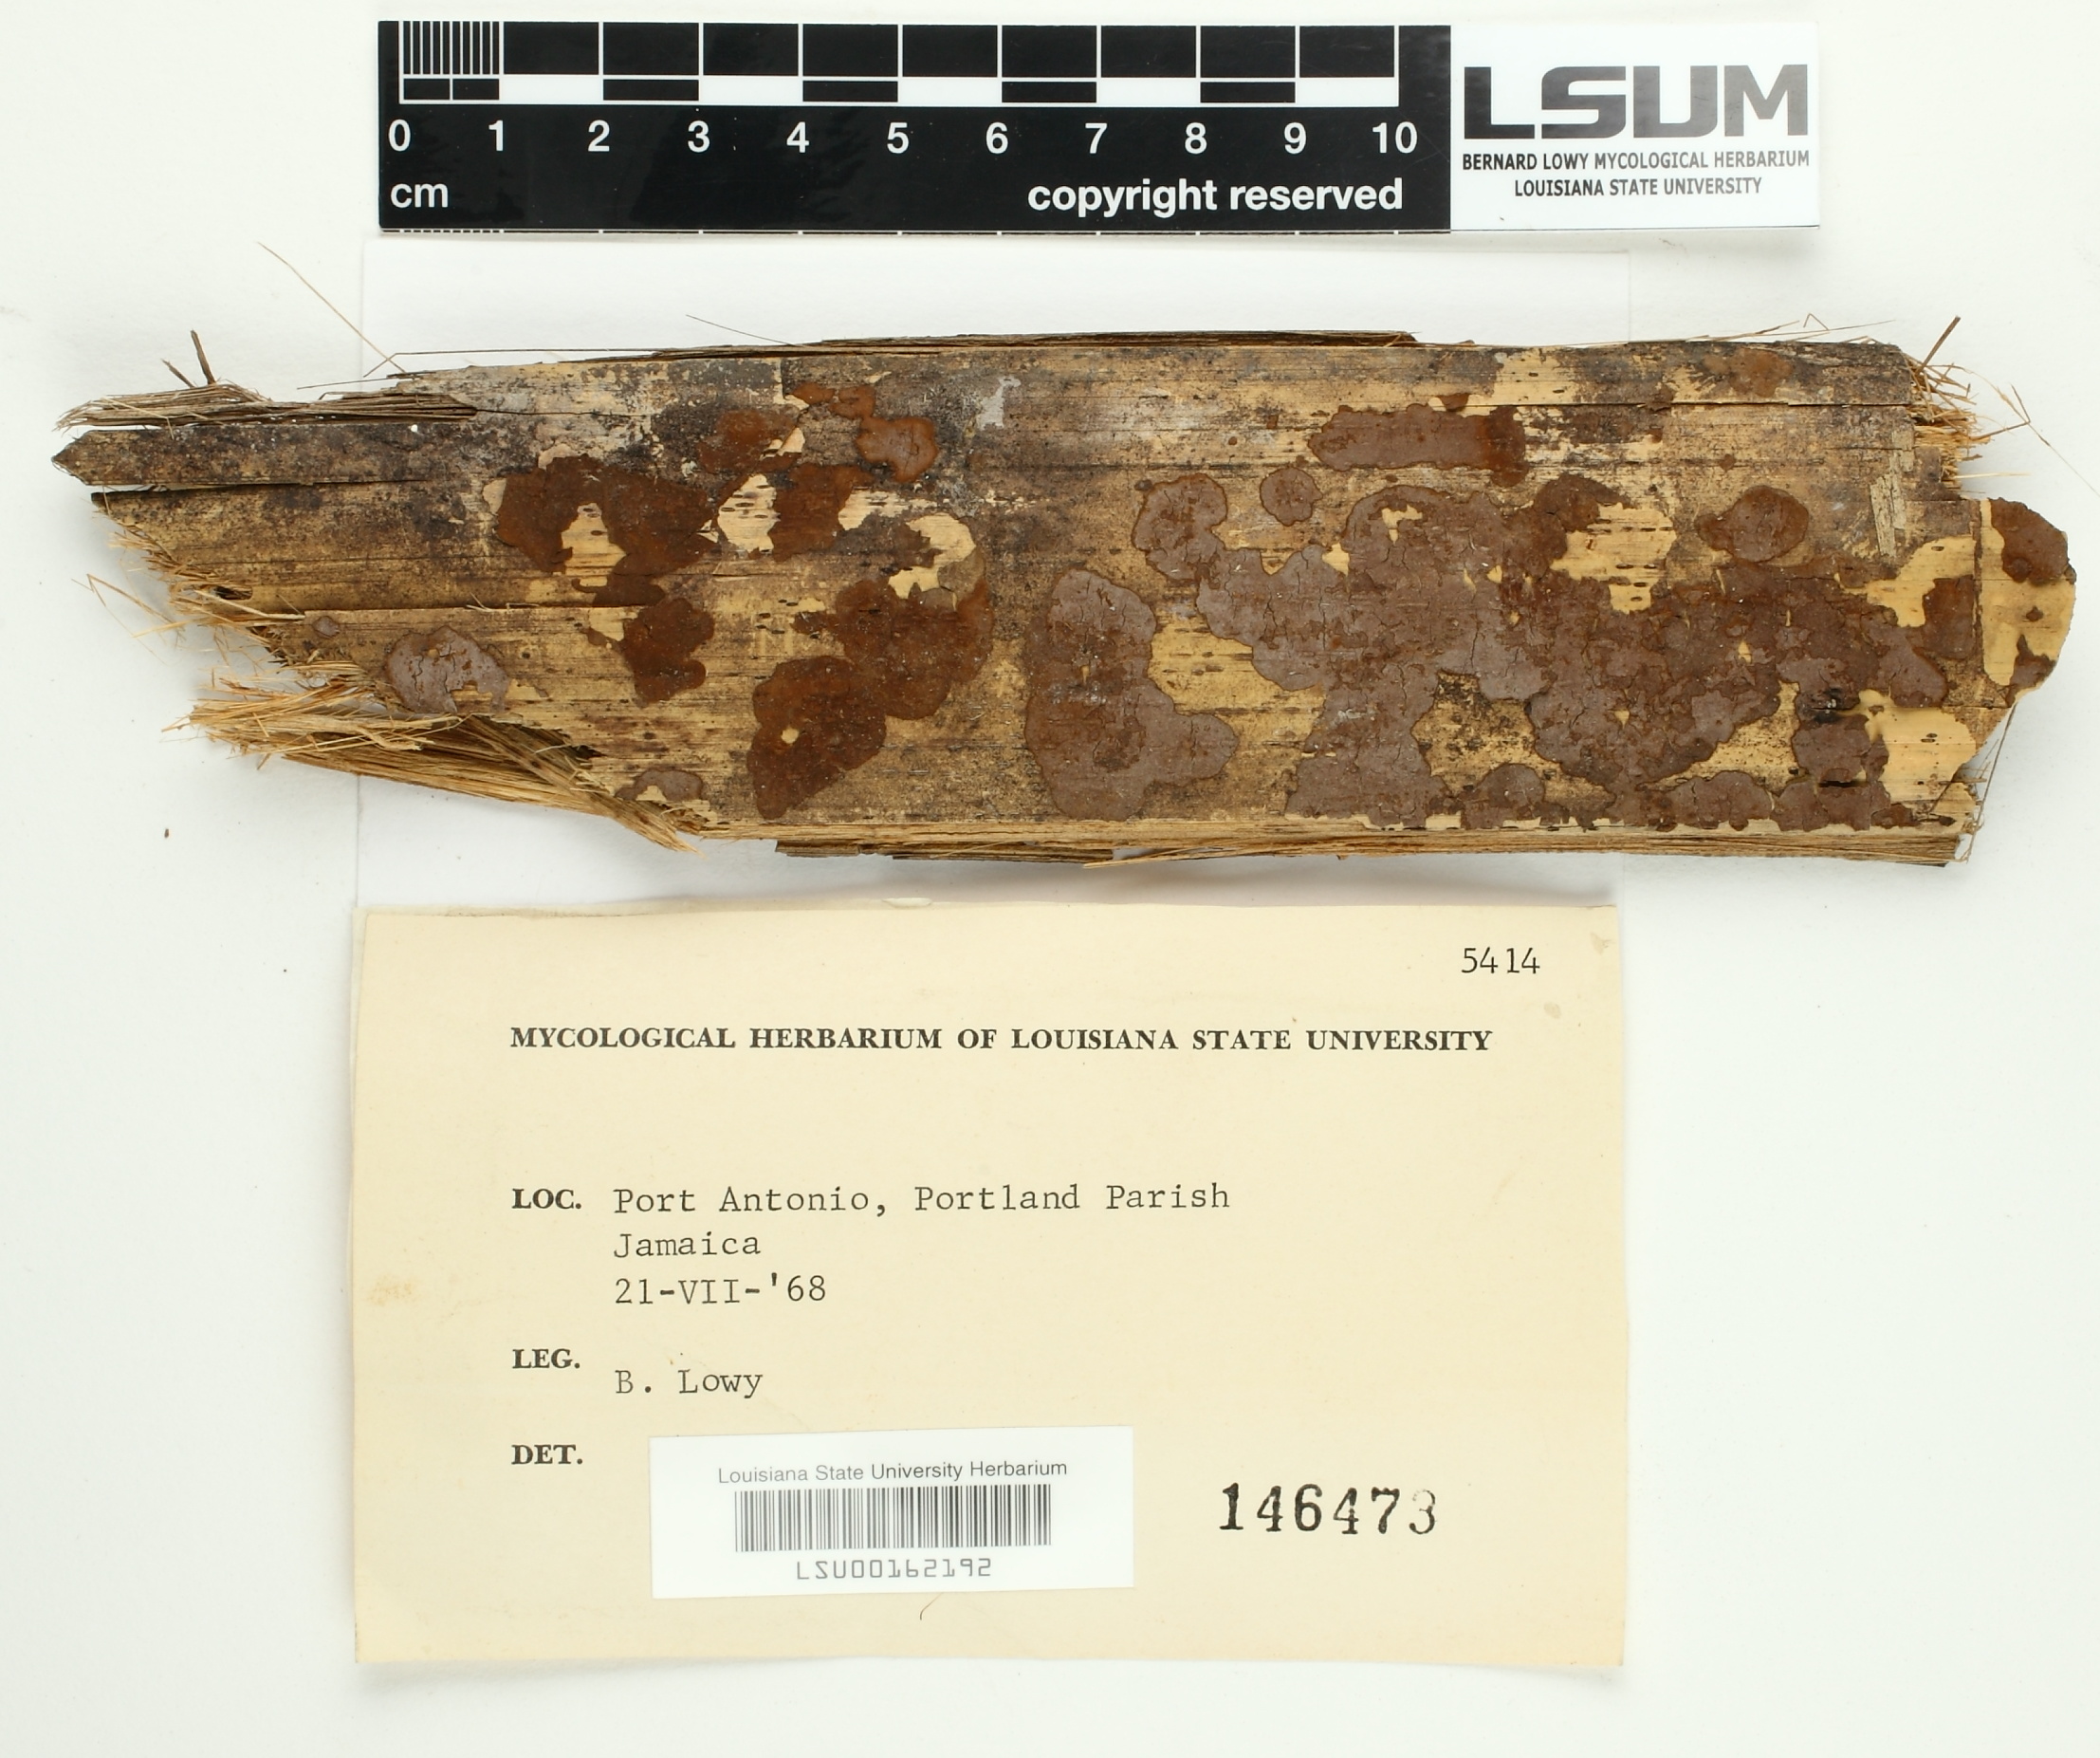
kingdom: Fungi
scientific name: Fungi
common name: Fungi
